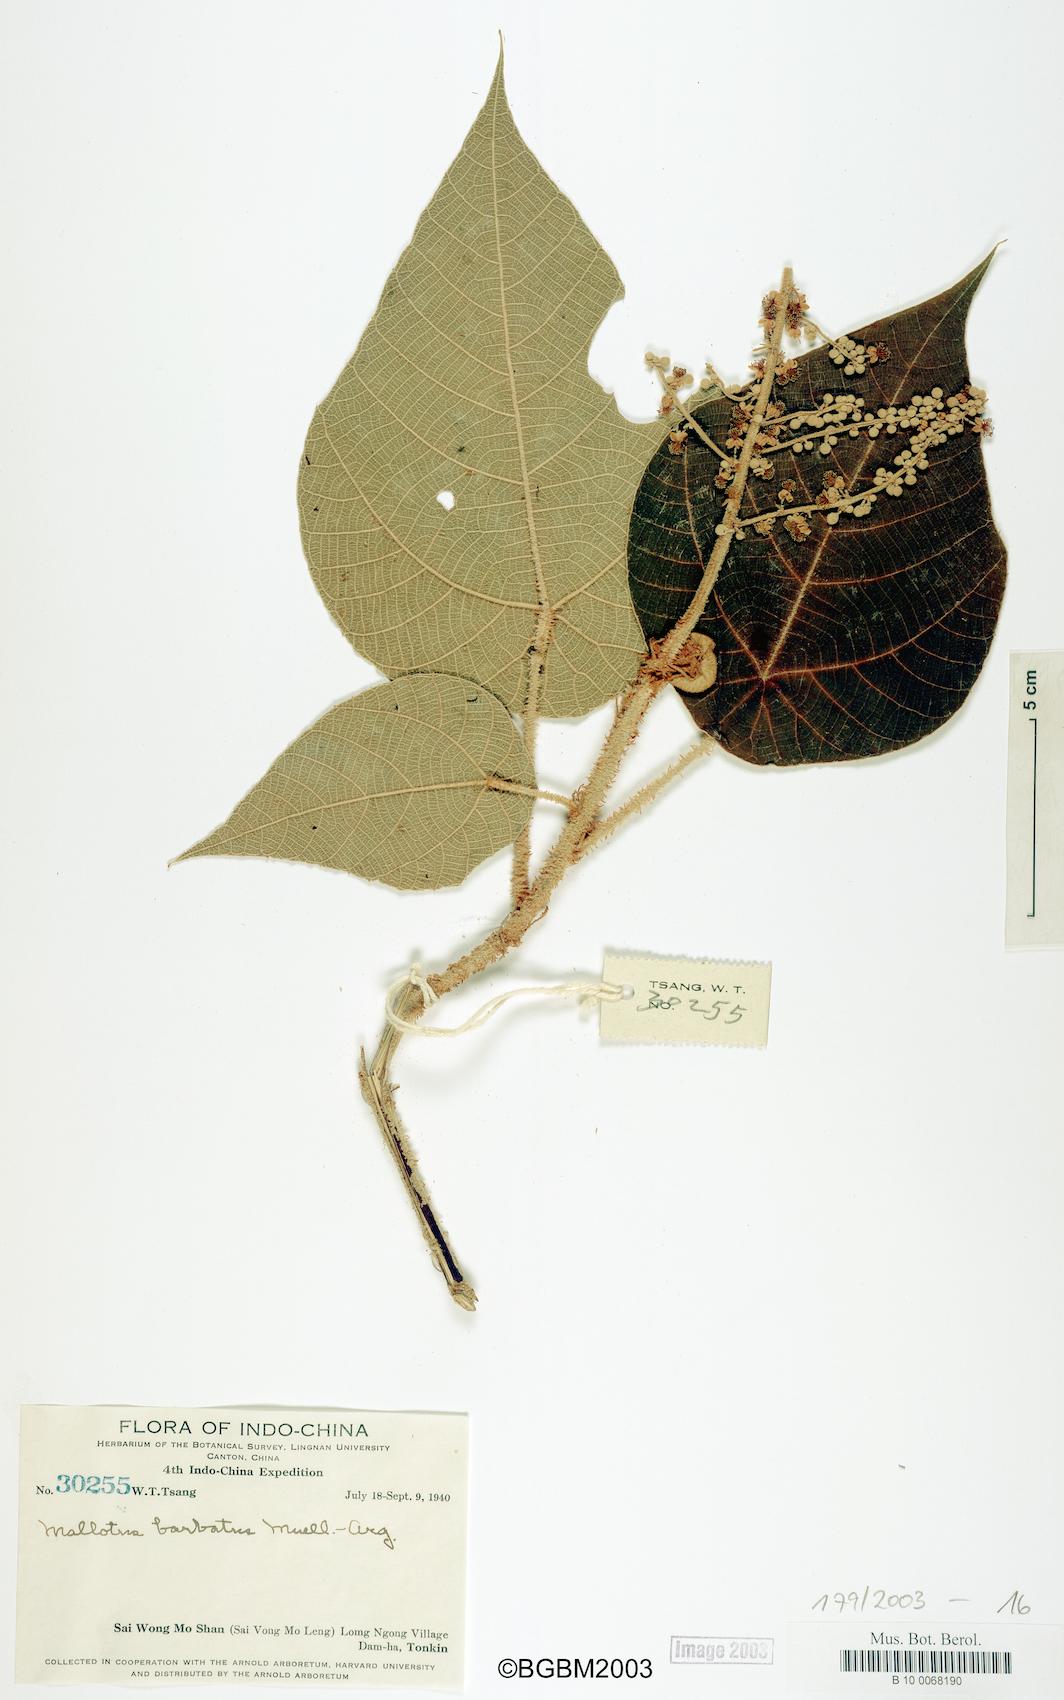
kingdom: Plantae
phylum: Tracheophyta
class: Magnoliopsida
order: Malpighiales
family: Euphorbiaceae
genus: Mallotus
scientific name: Mallotus barbatus
